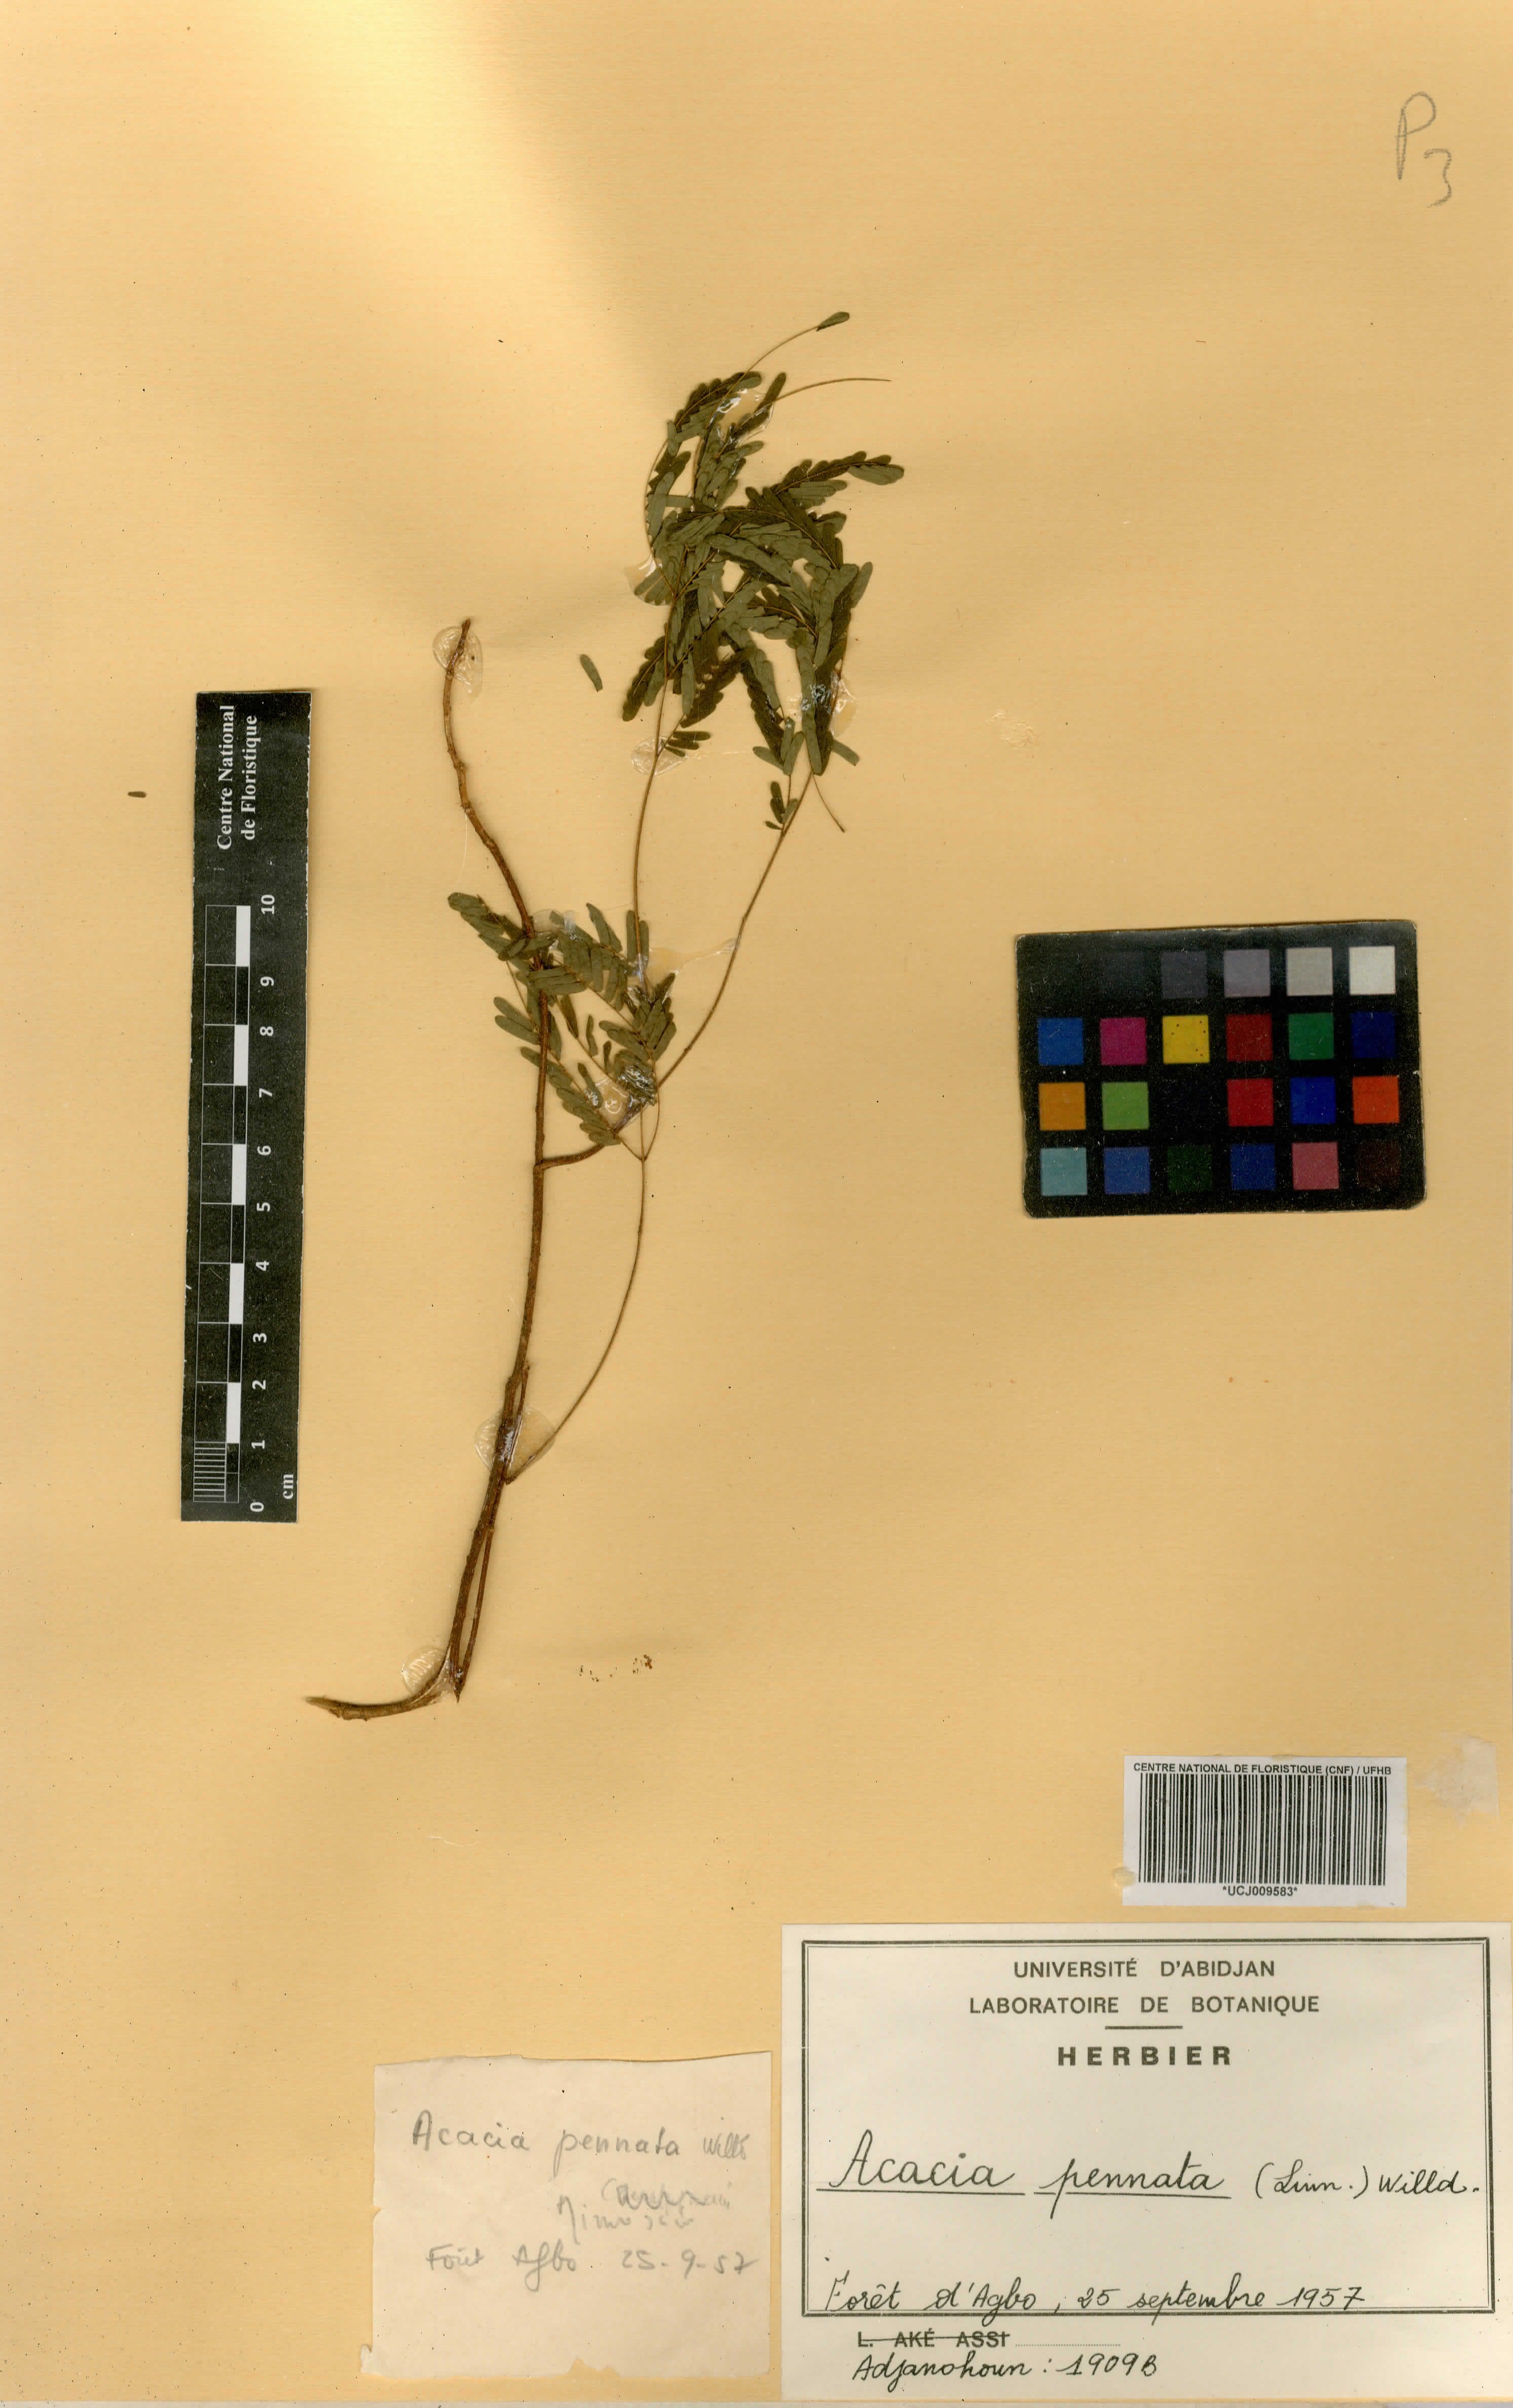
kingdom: Plantae
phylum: Tracheophyta
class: Magnoliopsida
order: Fabales
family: Fabaceae
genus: Senegalia
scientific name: Senegalia pennata
